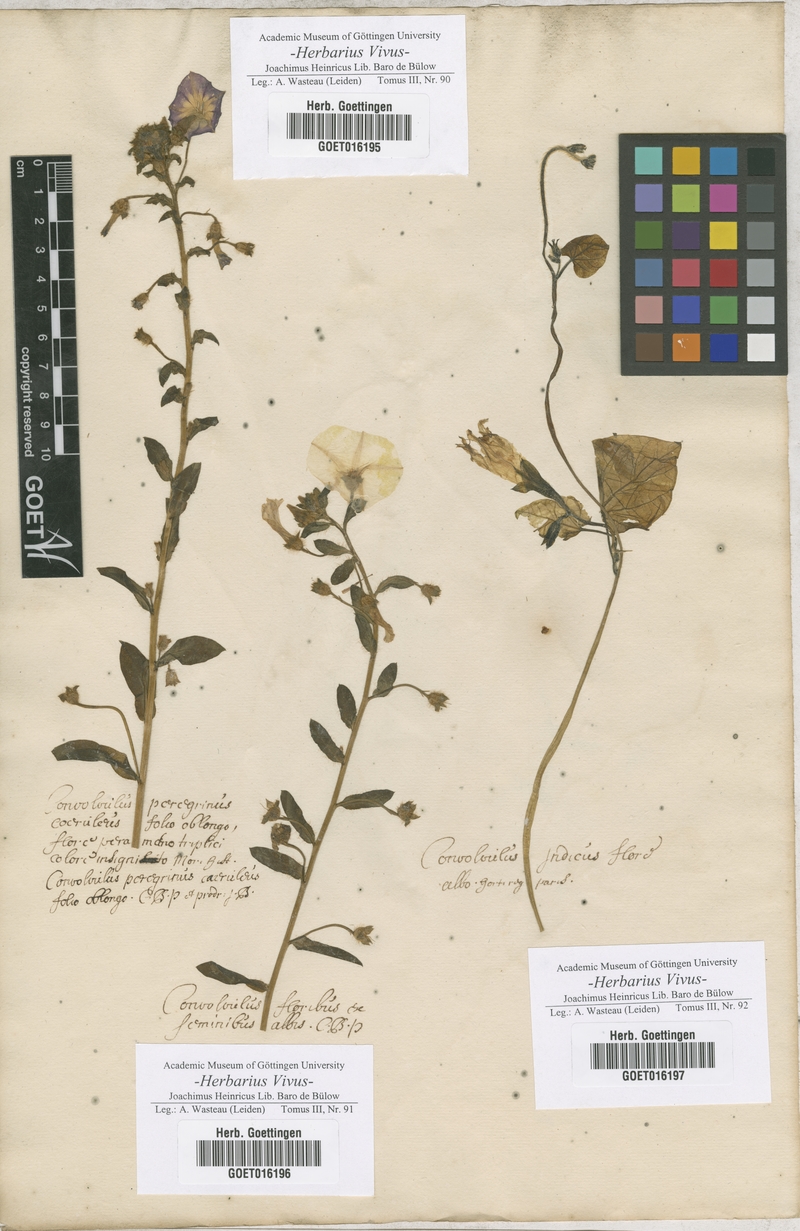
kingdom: Plantae
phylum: Tracheophyta
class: Magnoliopsida
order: Solanales
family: Convolvulaceae
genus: Convolvulus
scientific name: Convolvulus tricolor
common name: Dwarf morning-glory
